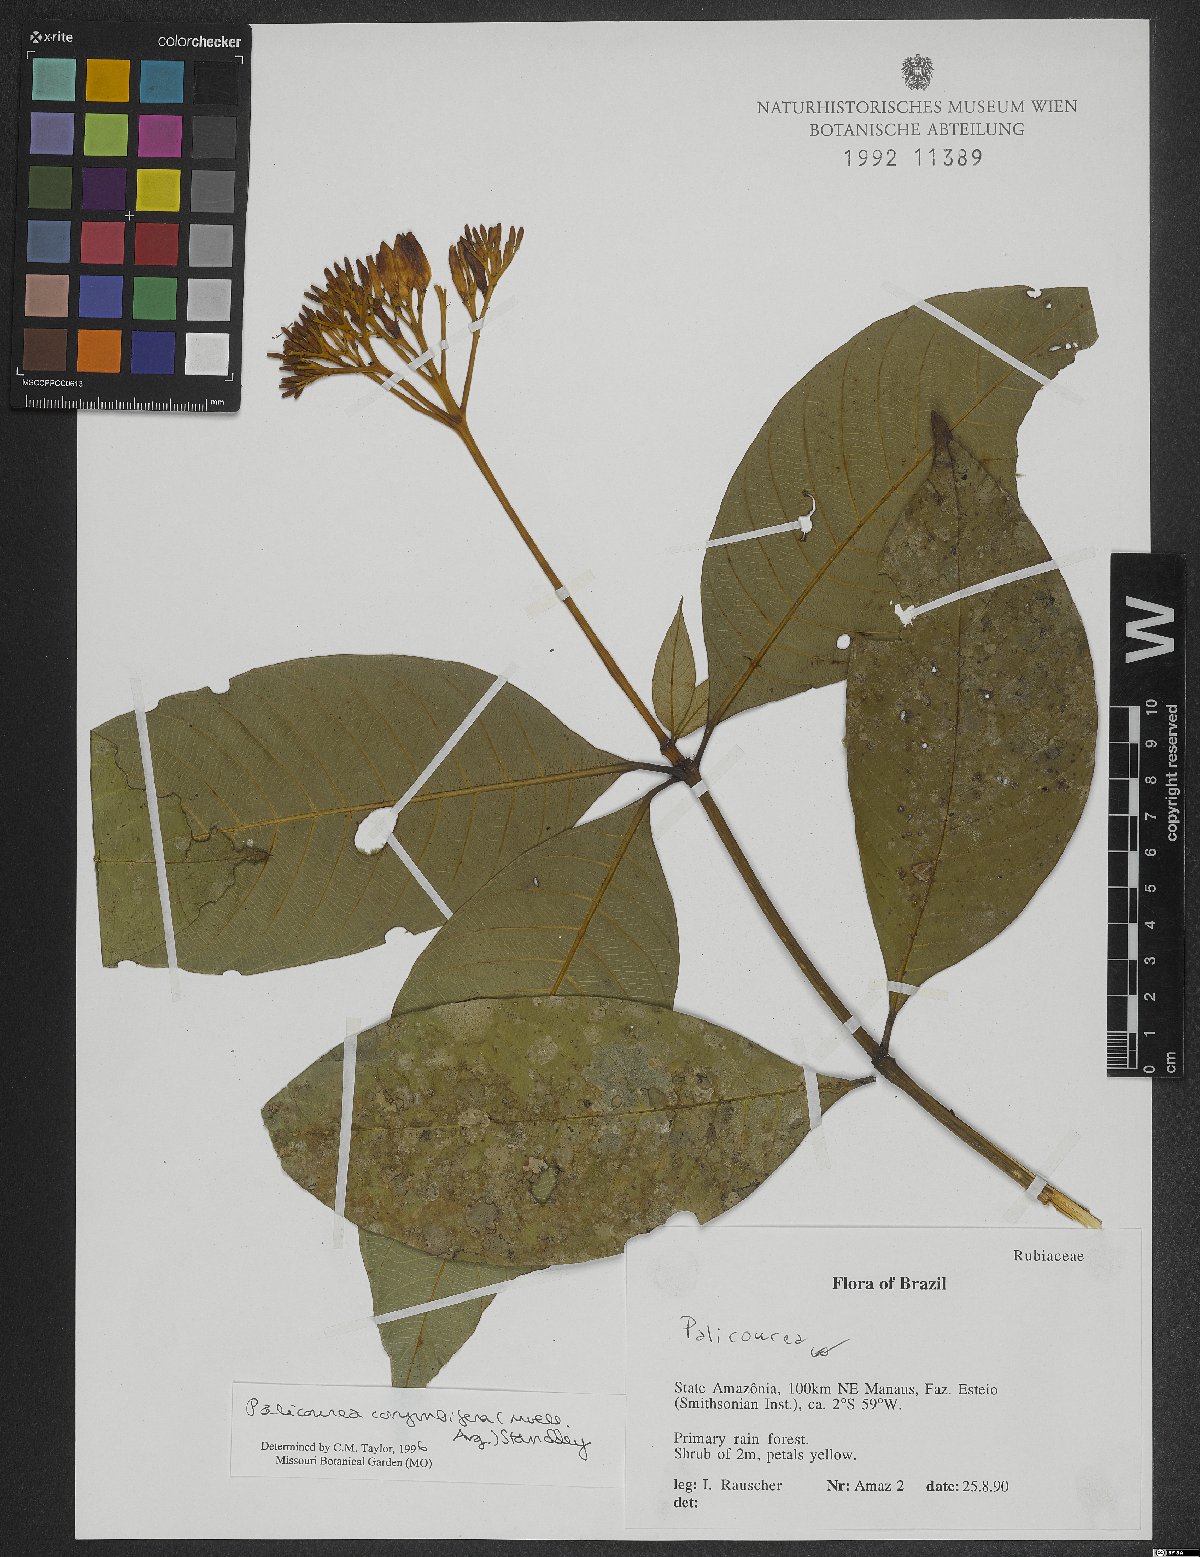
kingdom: Plantae
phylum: Tracheophyta
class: Magnoliopsida
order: Gentianales
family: Rubiaceae
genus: Palicourea
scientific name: Palicourea corymbifera
